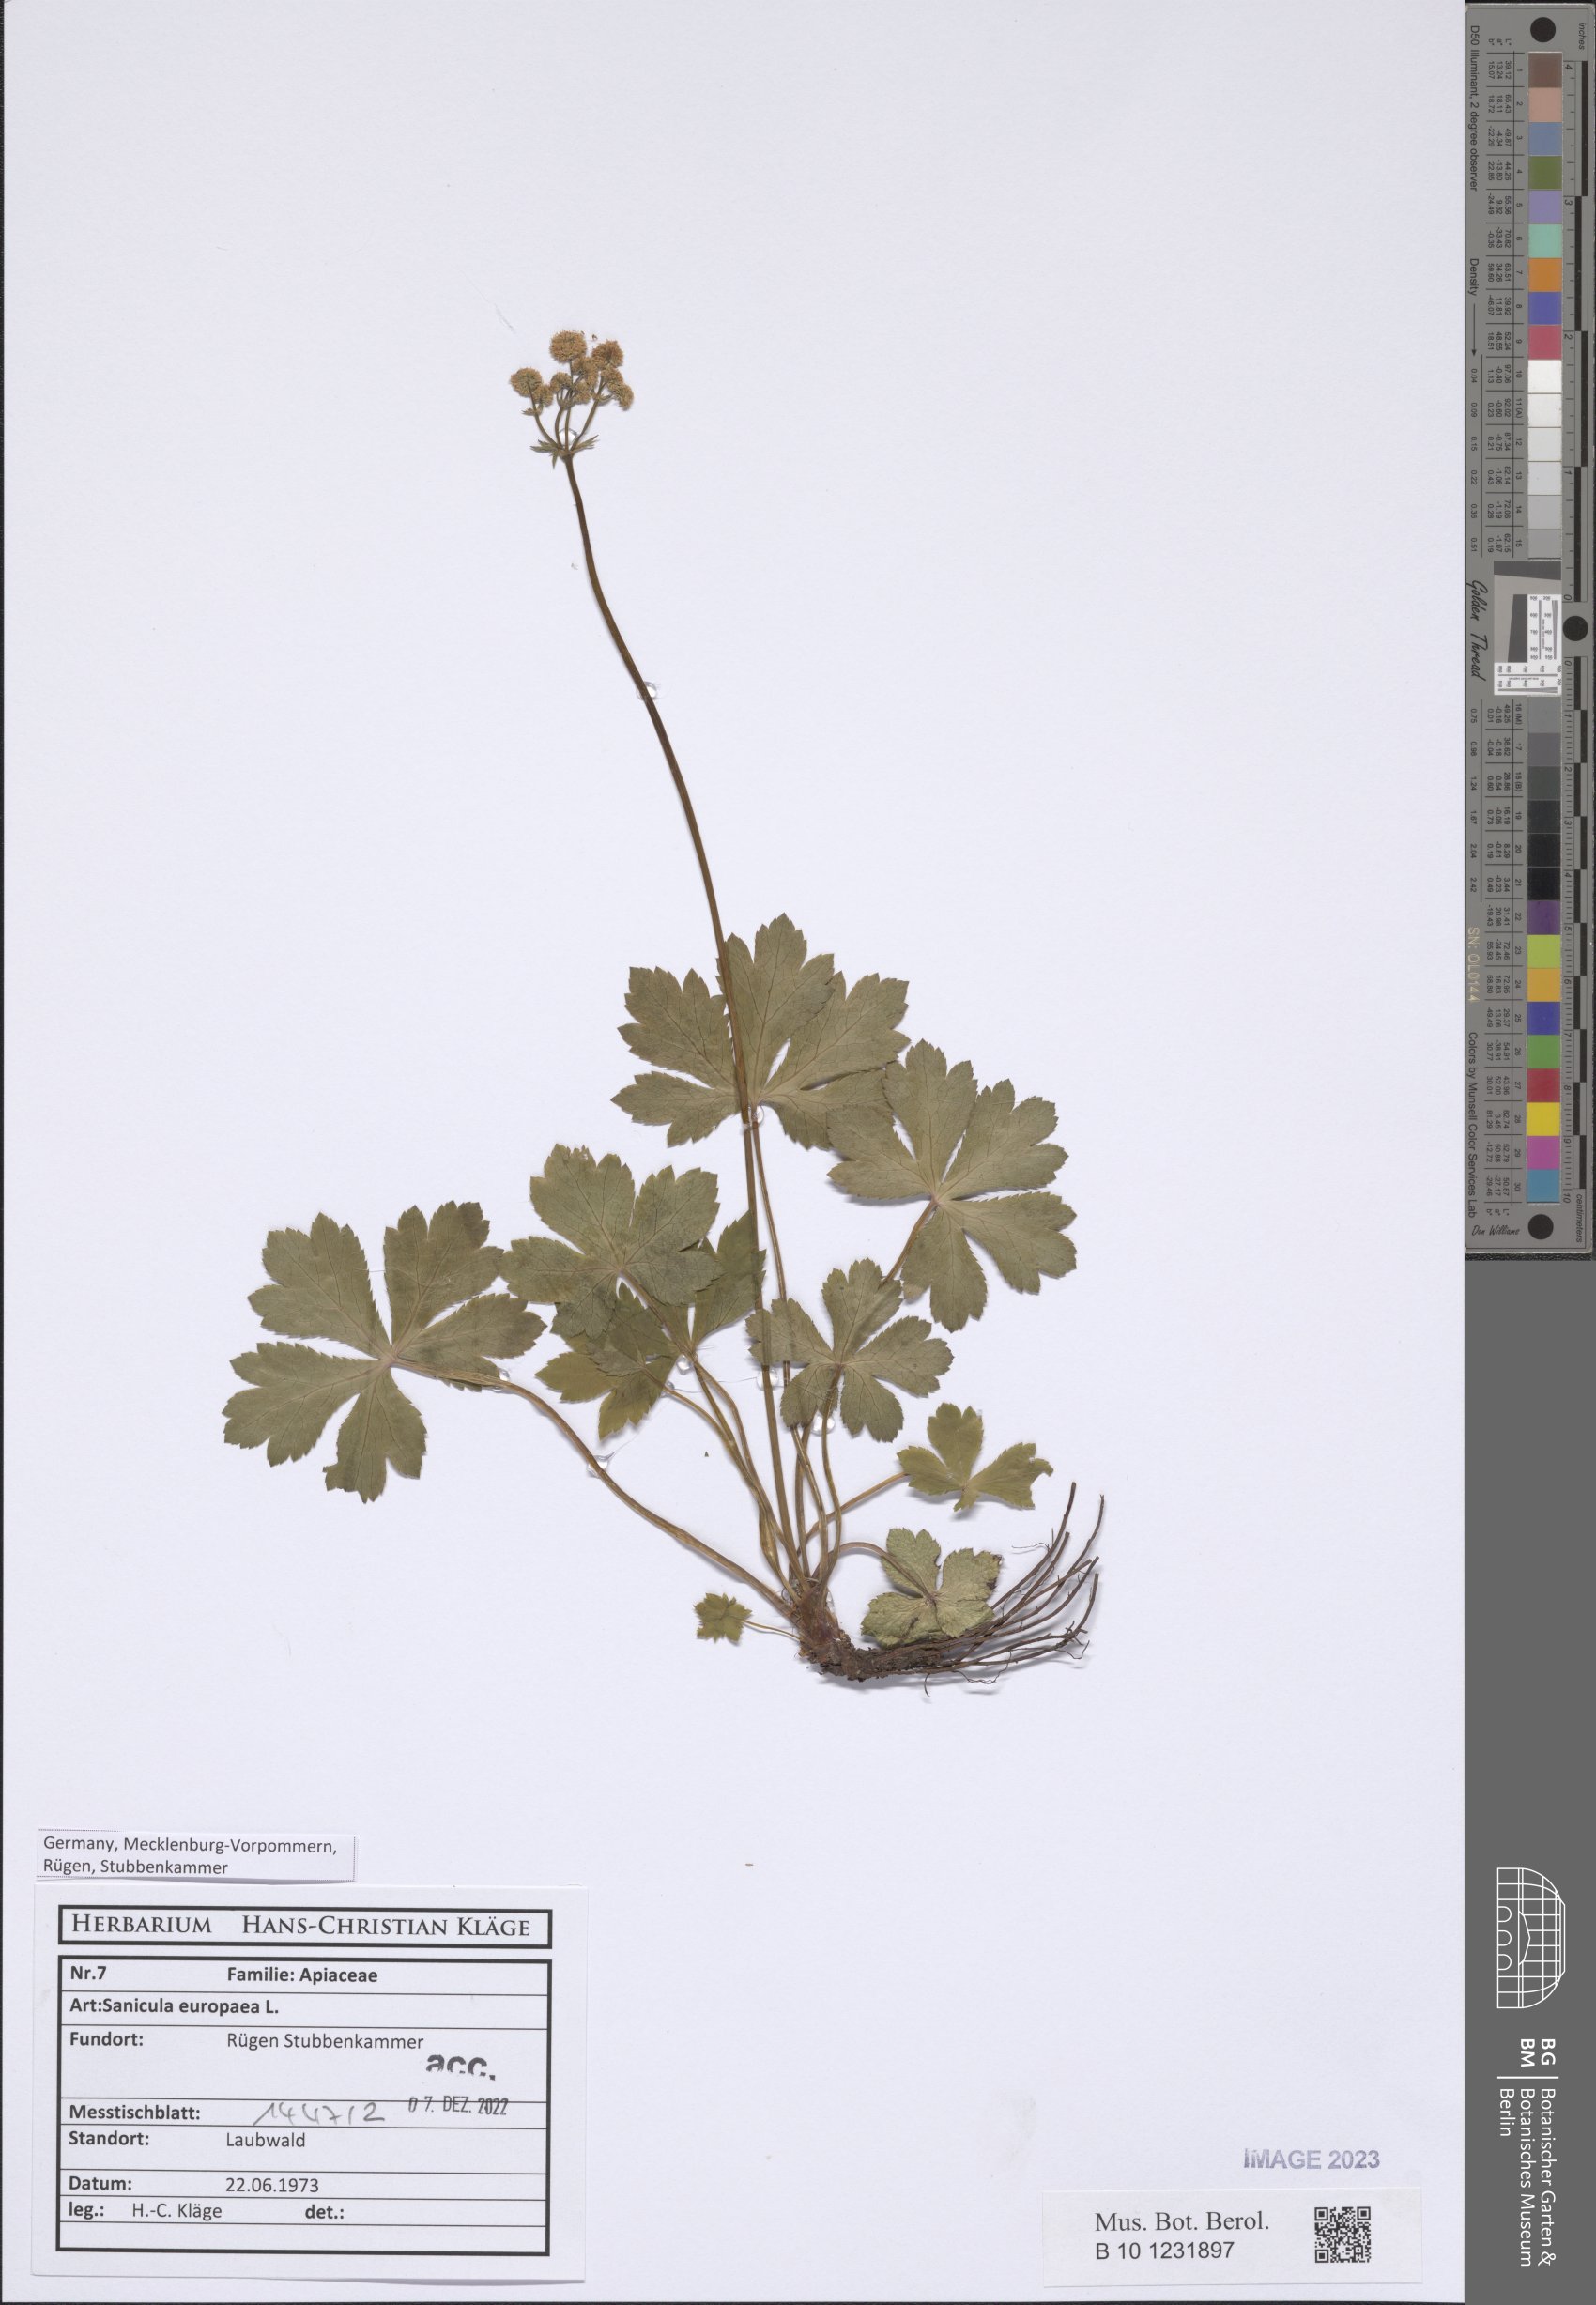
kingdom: Plantae
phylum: Tracheophyta
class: Magnoliopsida
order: Apiales
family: Apiaceae
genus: Sanicula
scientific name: Sanicula europaea
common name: Sanicle
